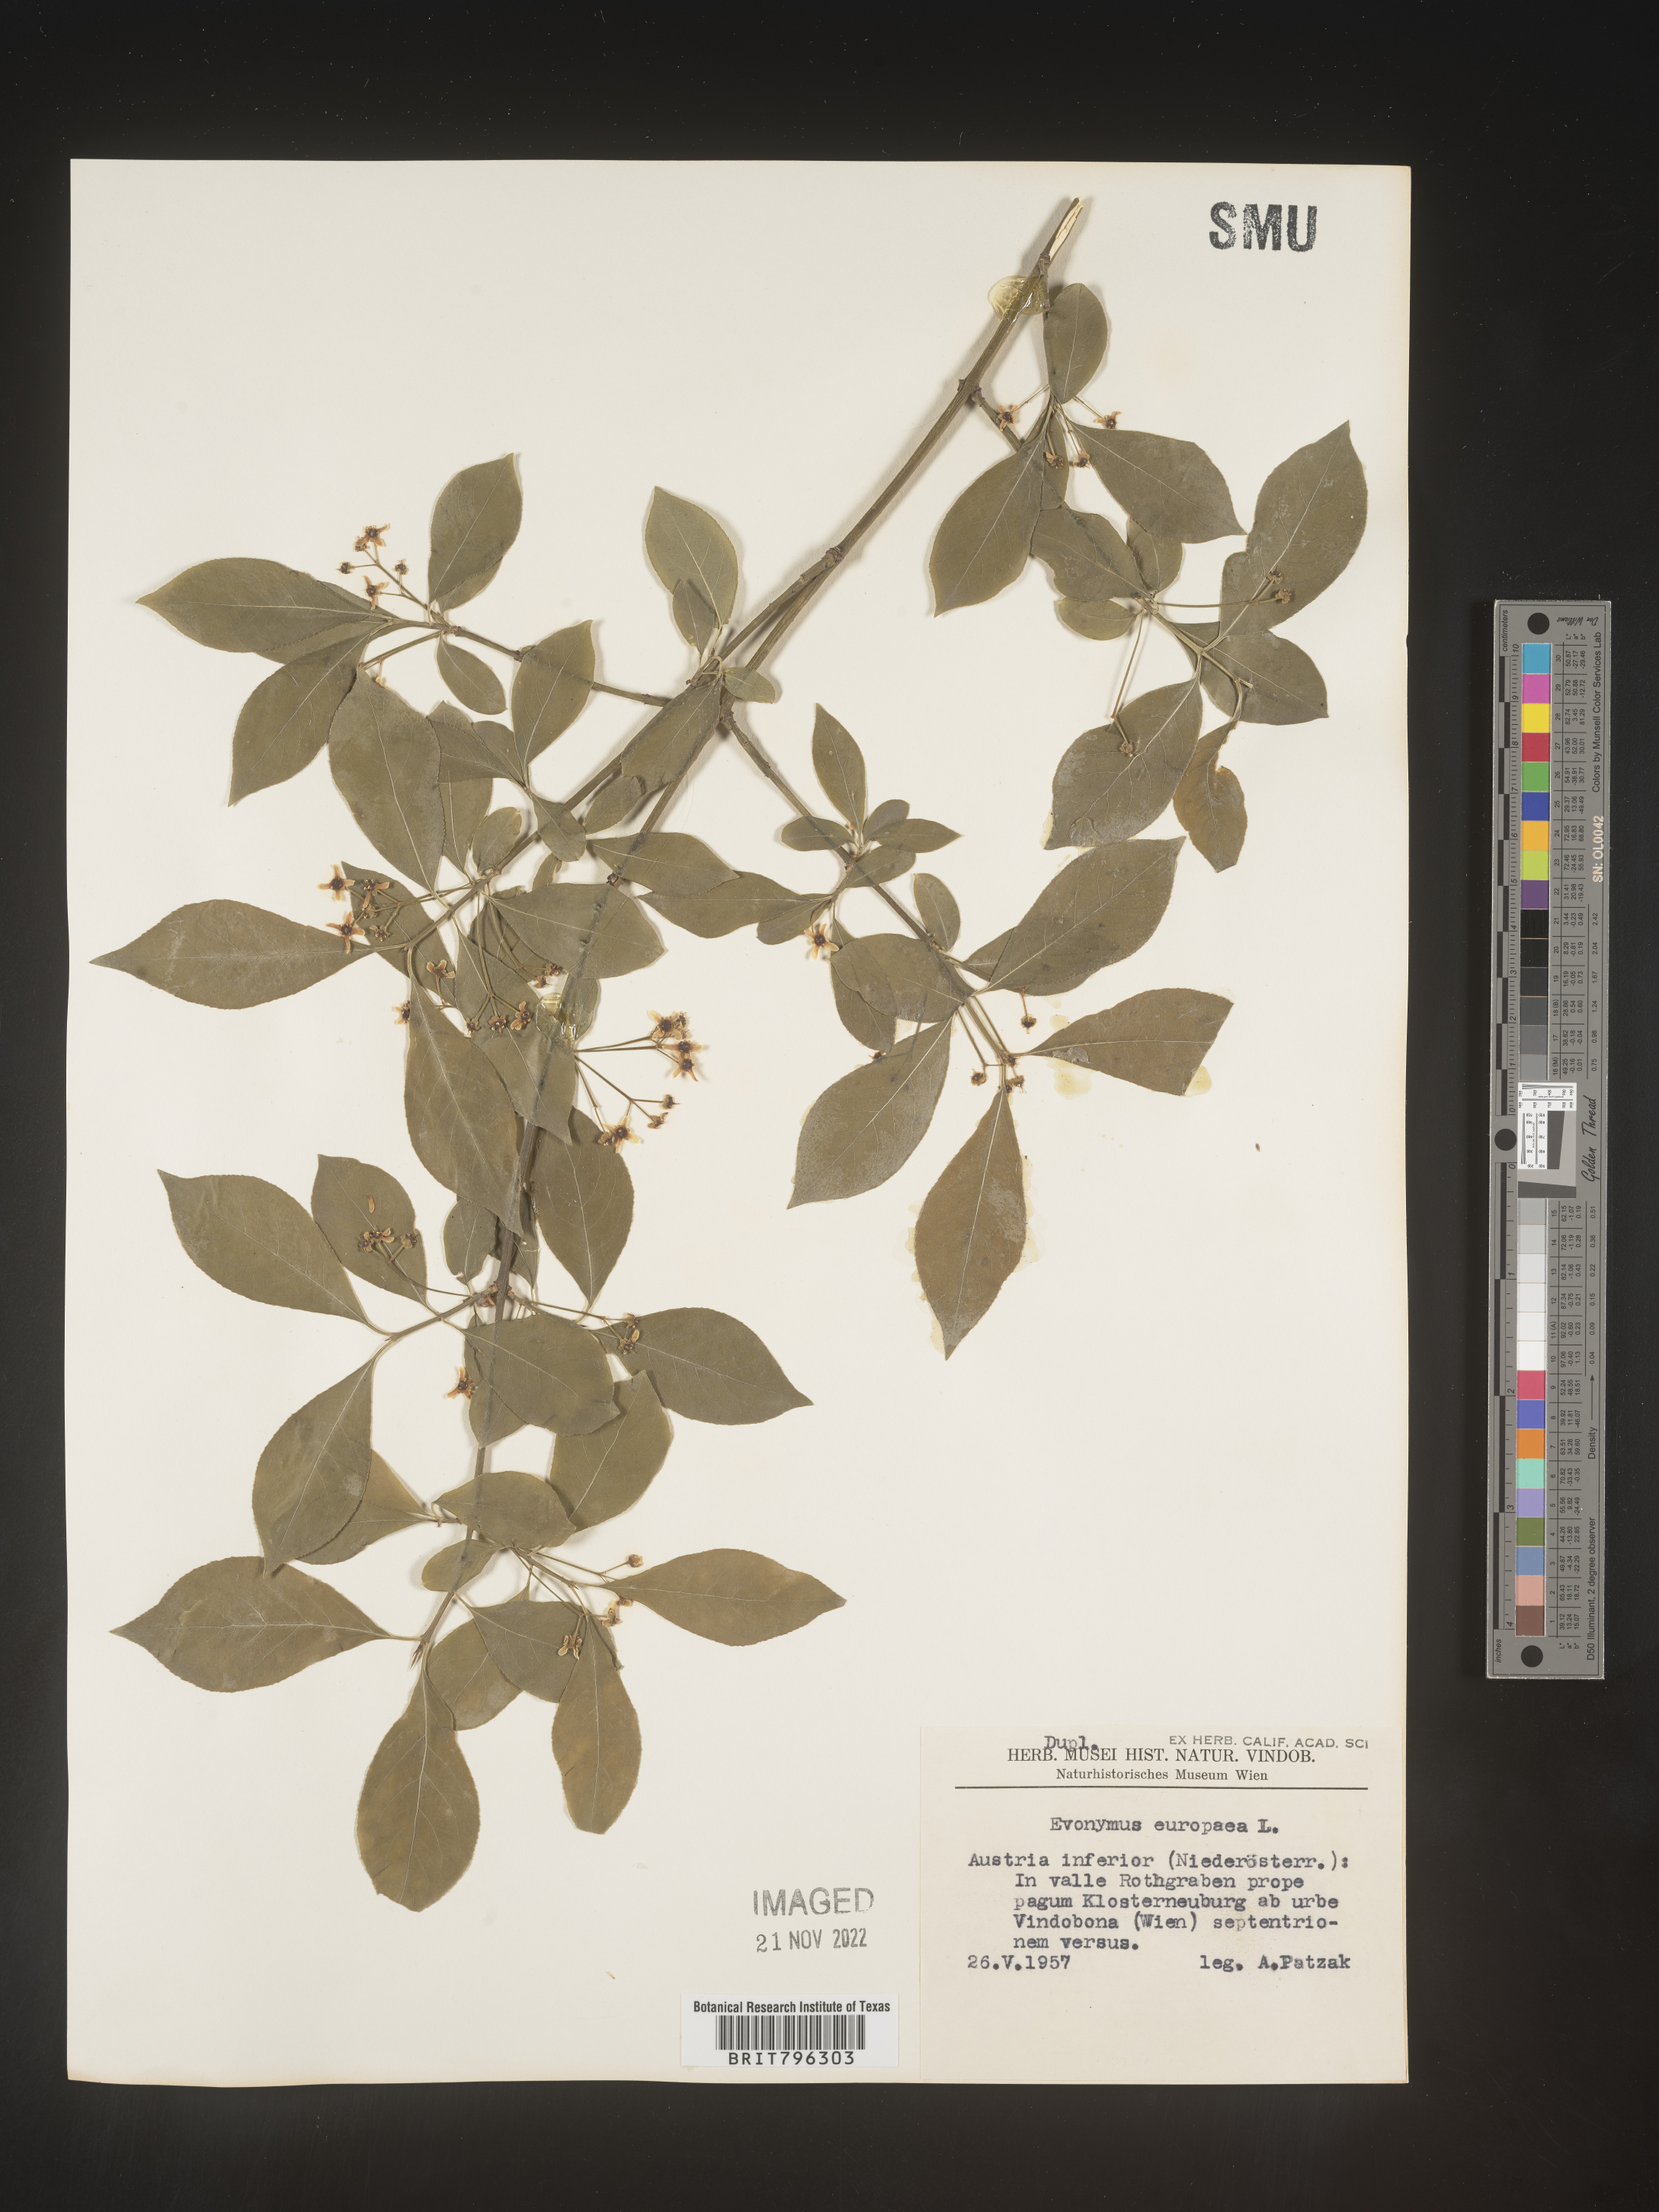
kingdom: Plantae
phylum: Tracheophyta
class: Magnoliopsida
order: Celastrales
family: Celastraceae
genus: Euonymus
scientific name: Euonymus
